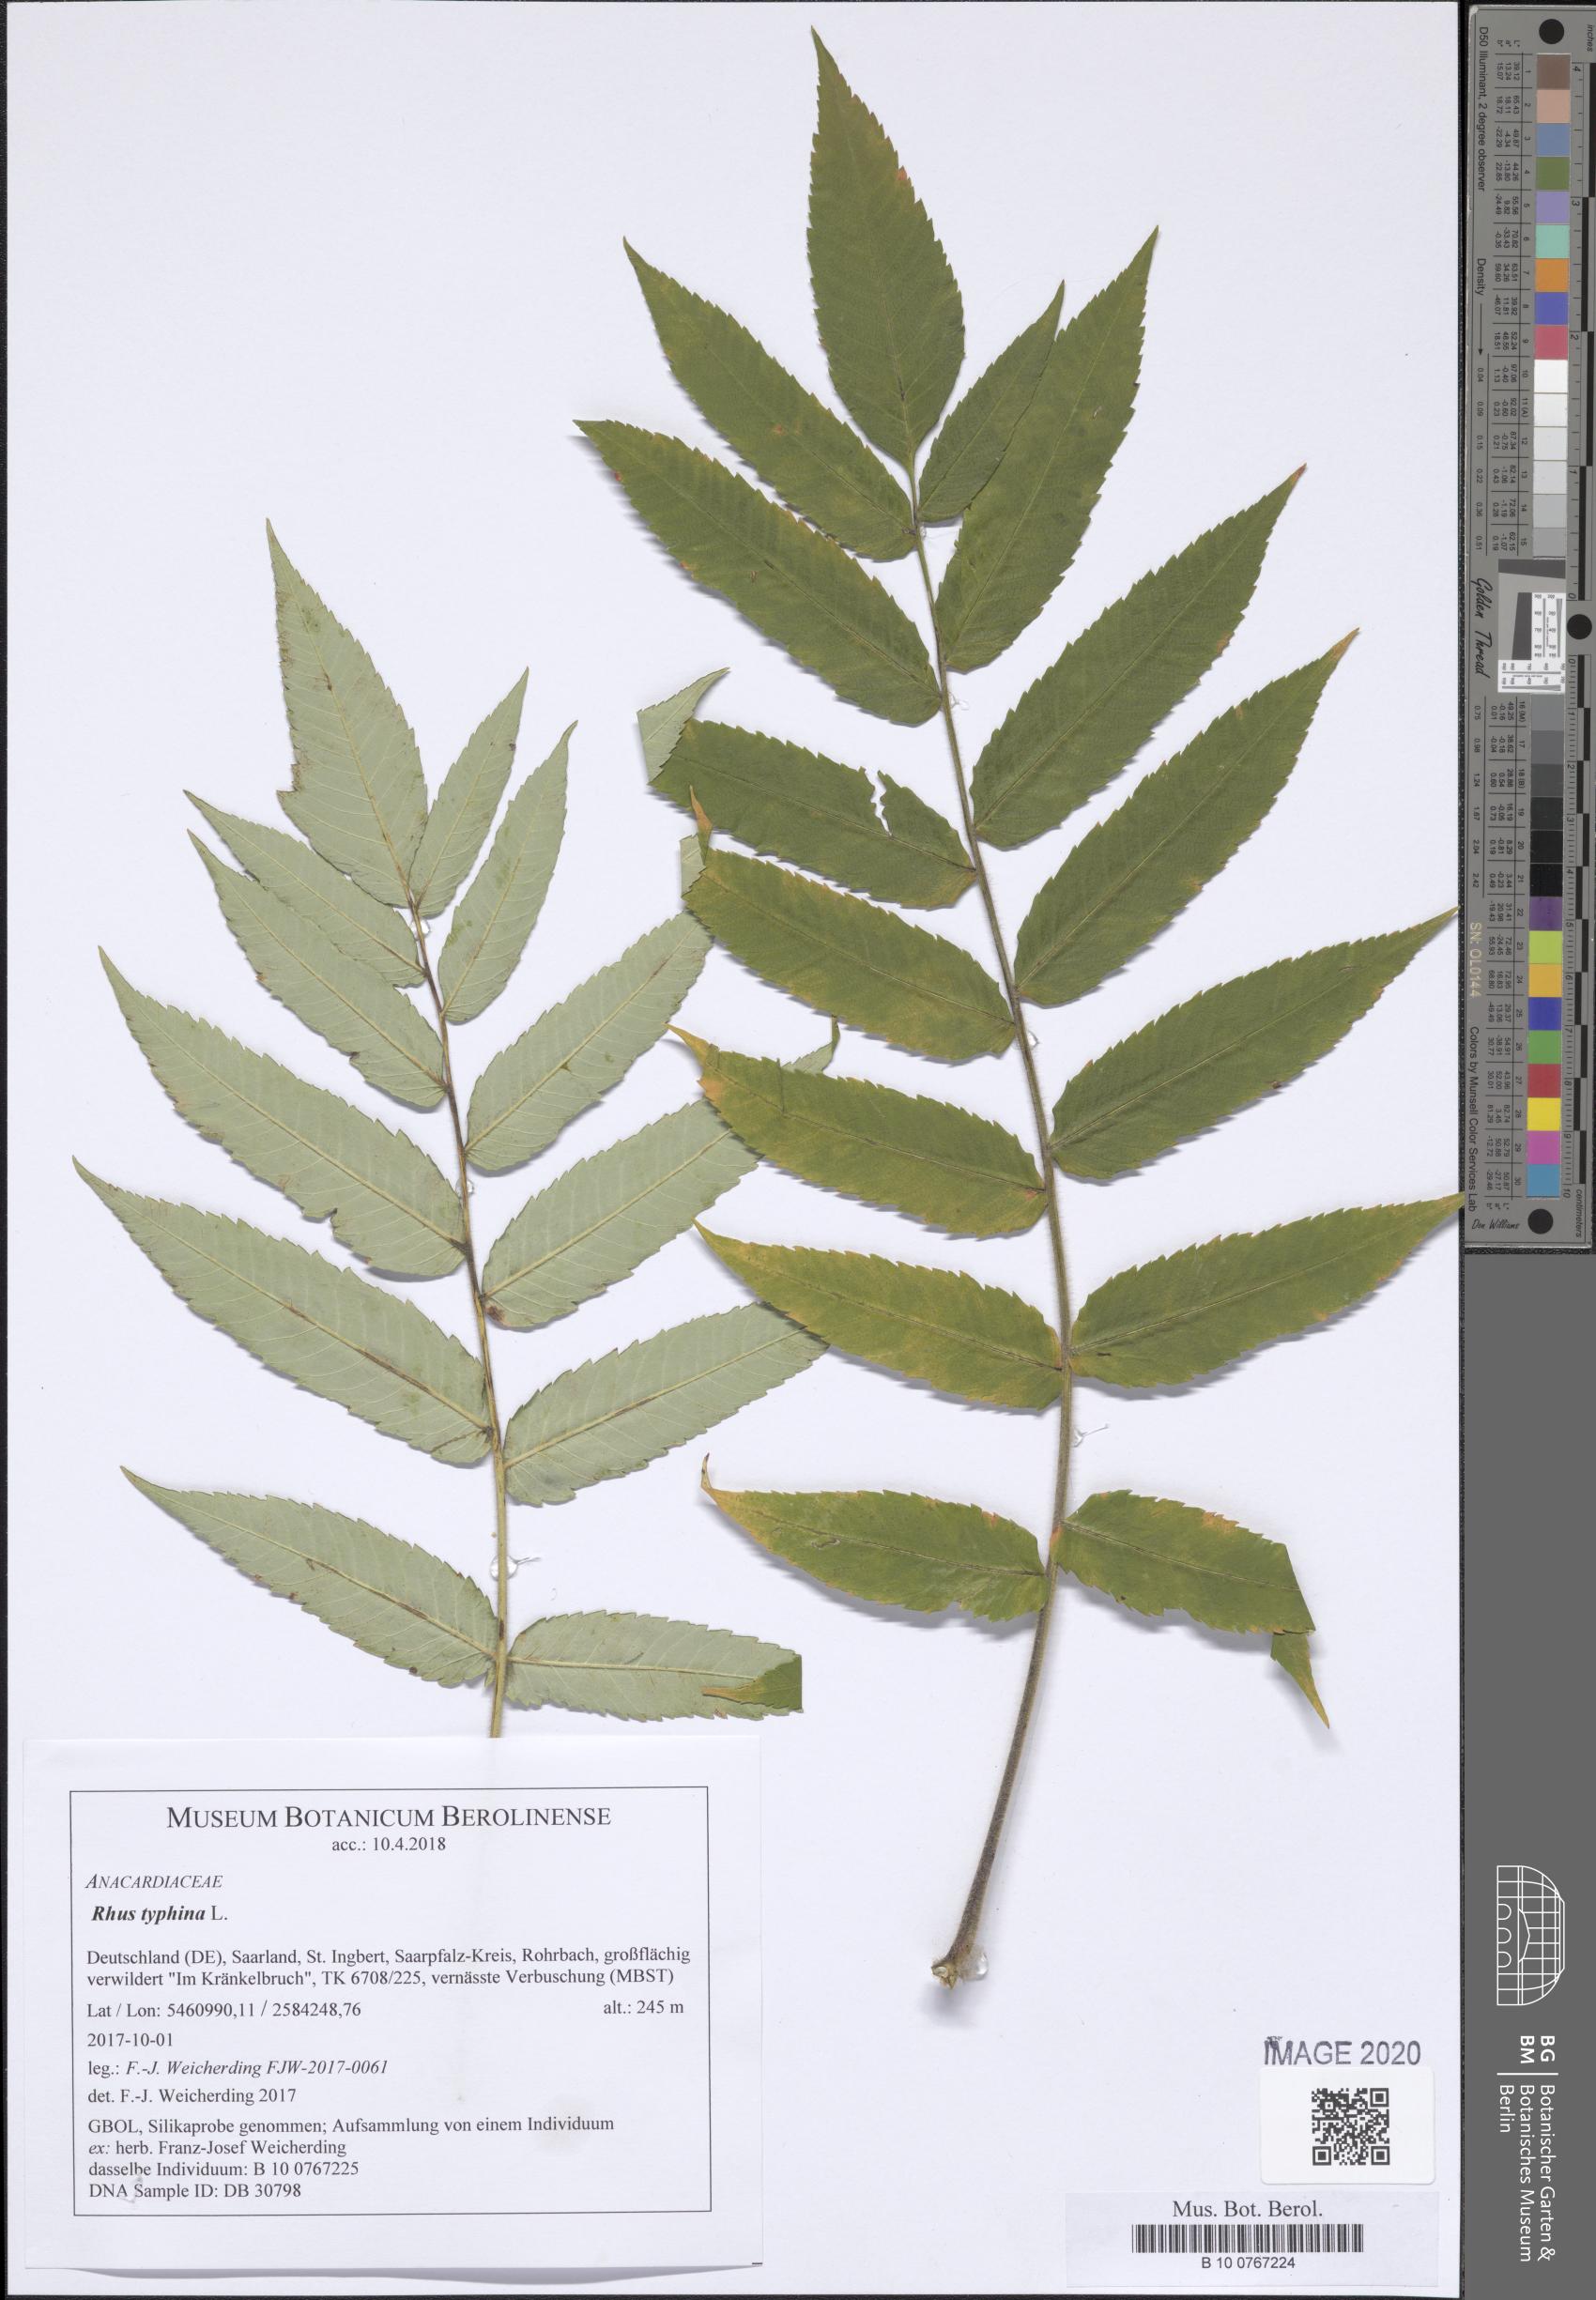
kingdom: Plantae
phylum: Tracheophyta
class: Magnoliopsida
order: Sapindales
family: Anacardiaceae
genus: Rhus
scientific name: Rhus typhina
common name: Staghorn sumac
